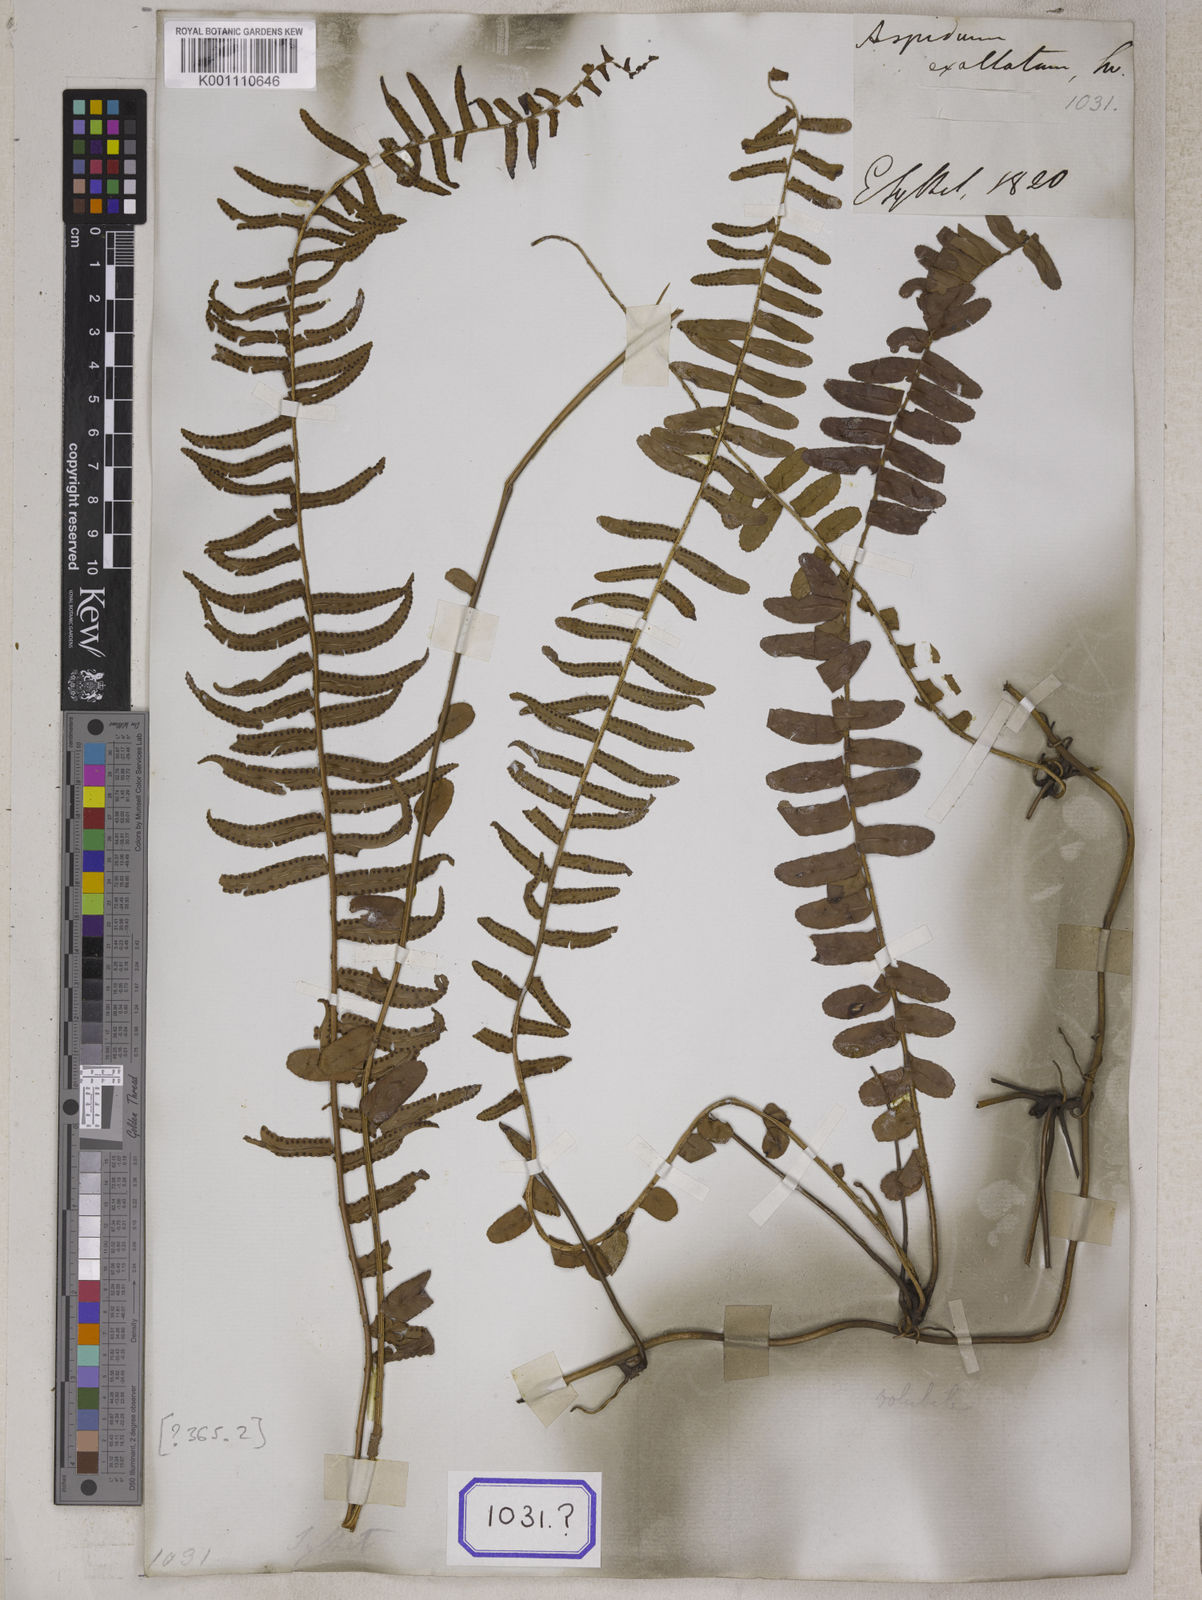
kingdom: Plantae
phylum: Tracheophyta
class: Polypodiopsida
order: Polypodiales
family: Nephrolepidaceae
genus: Nephrolepis
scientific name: Nephrolepis exaltata
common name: Sword fern
